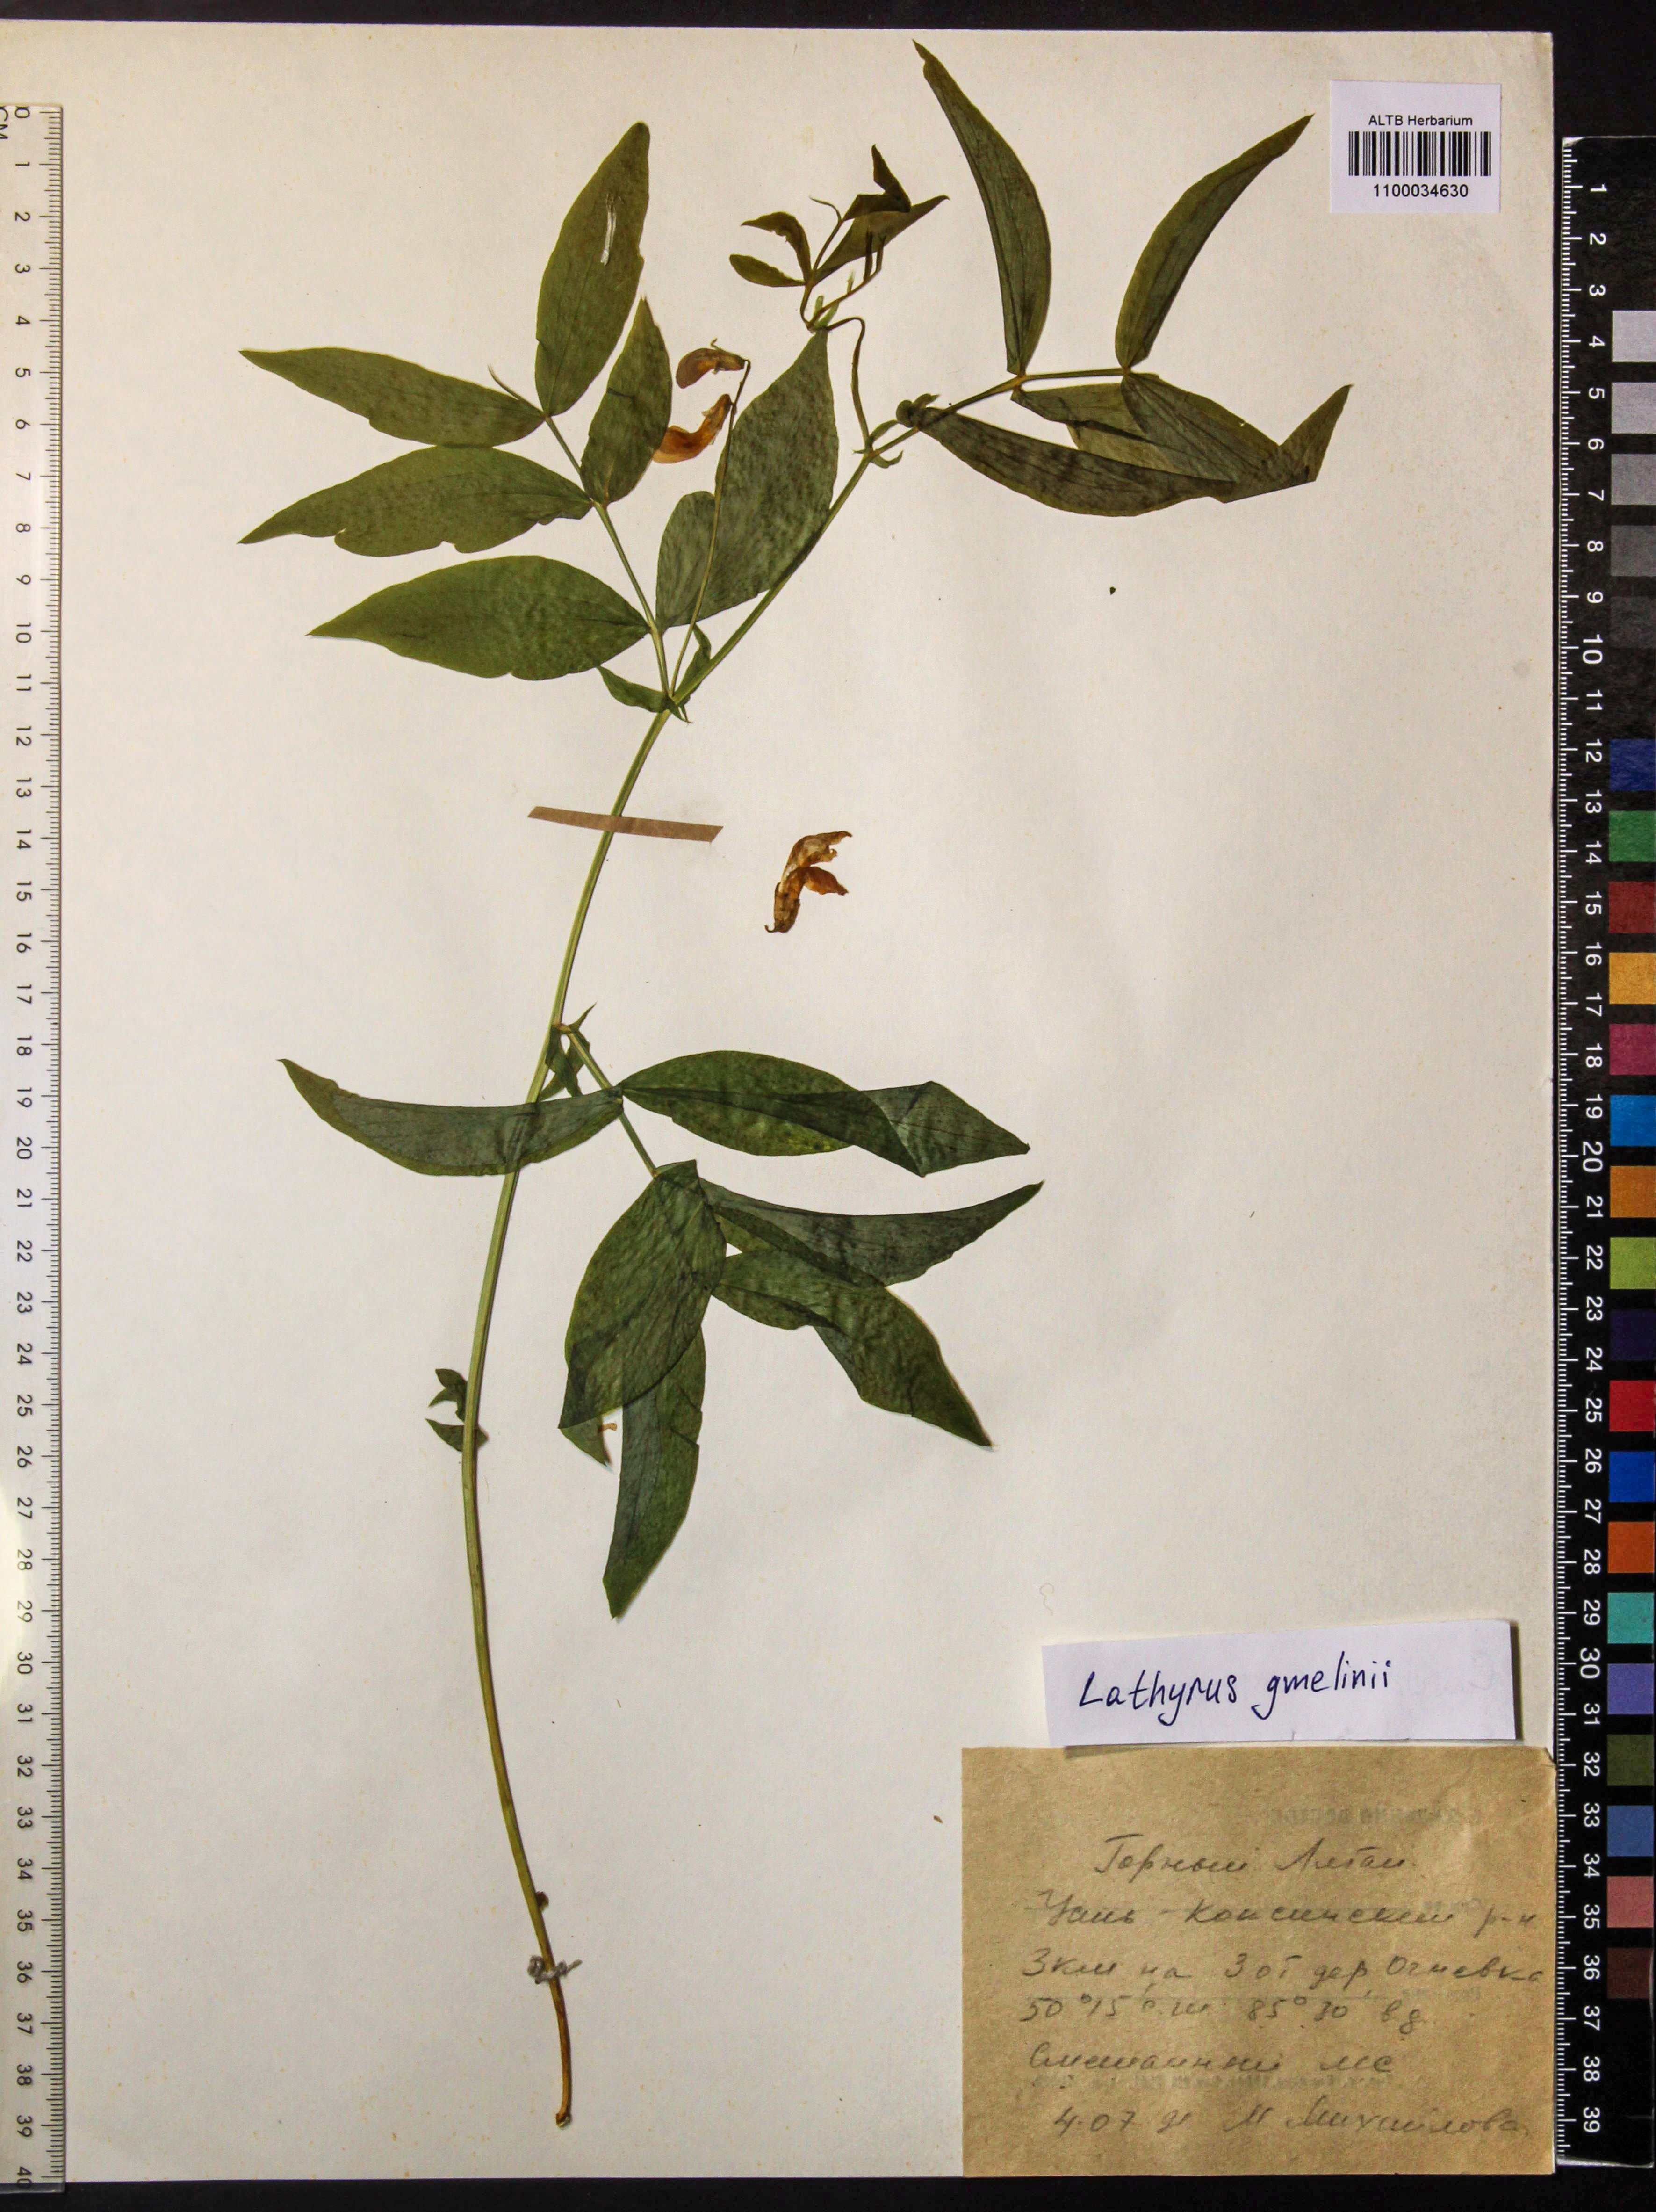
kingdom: Plantae
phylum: Tracheophyta
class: Magnoliopsida
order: Fabales
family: Fabaceae
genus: Lathyrus
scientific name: Lathyrus gmelinii
